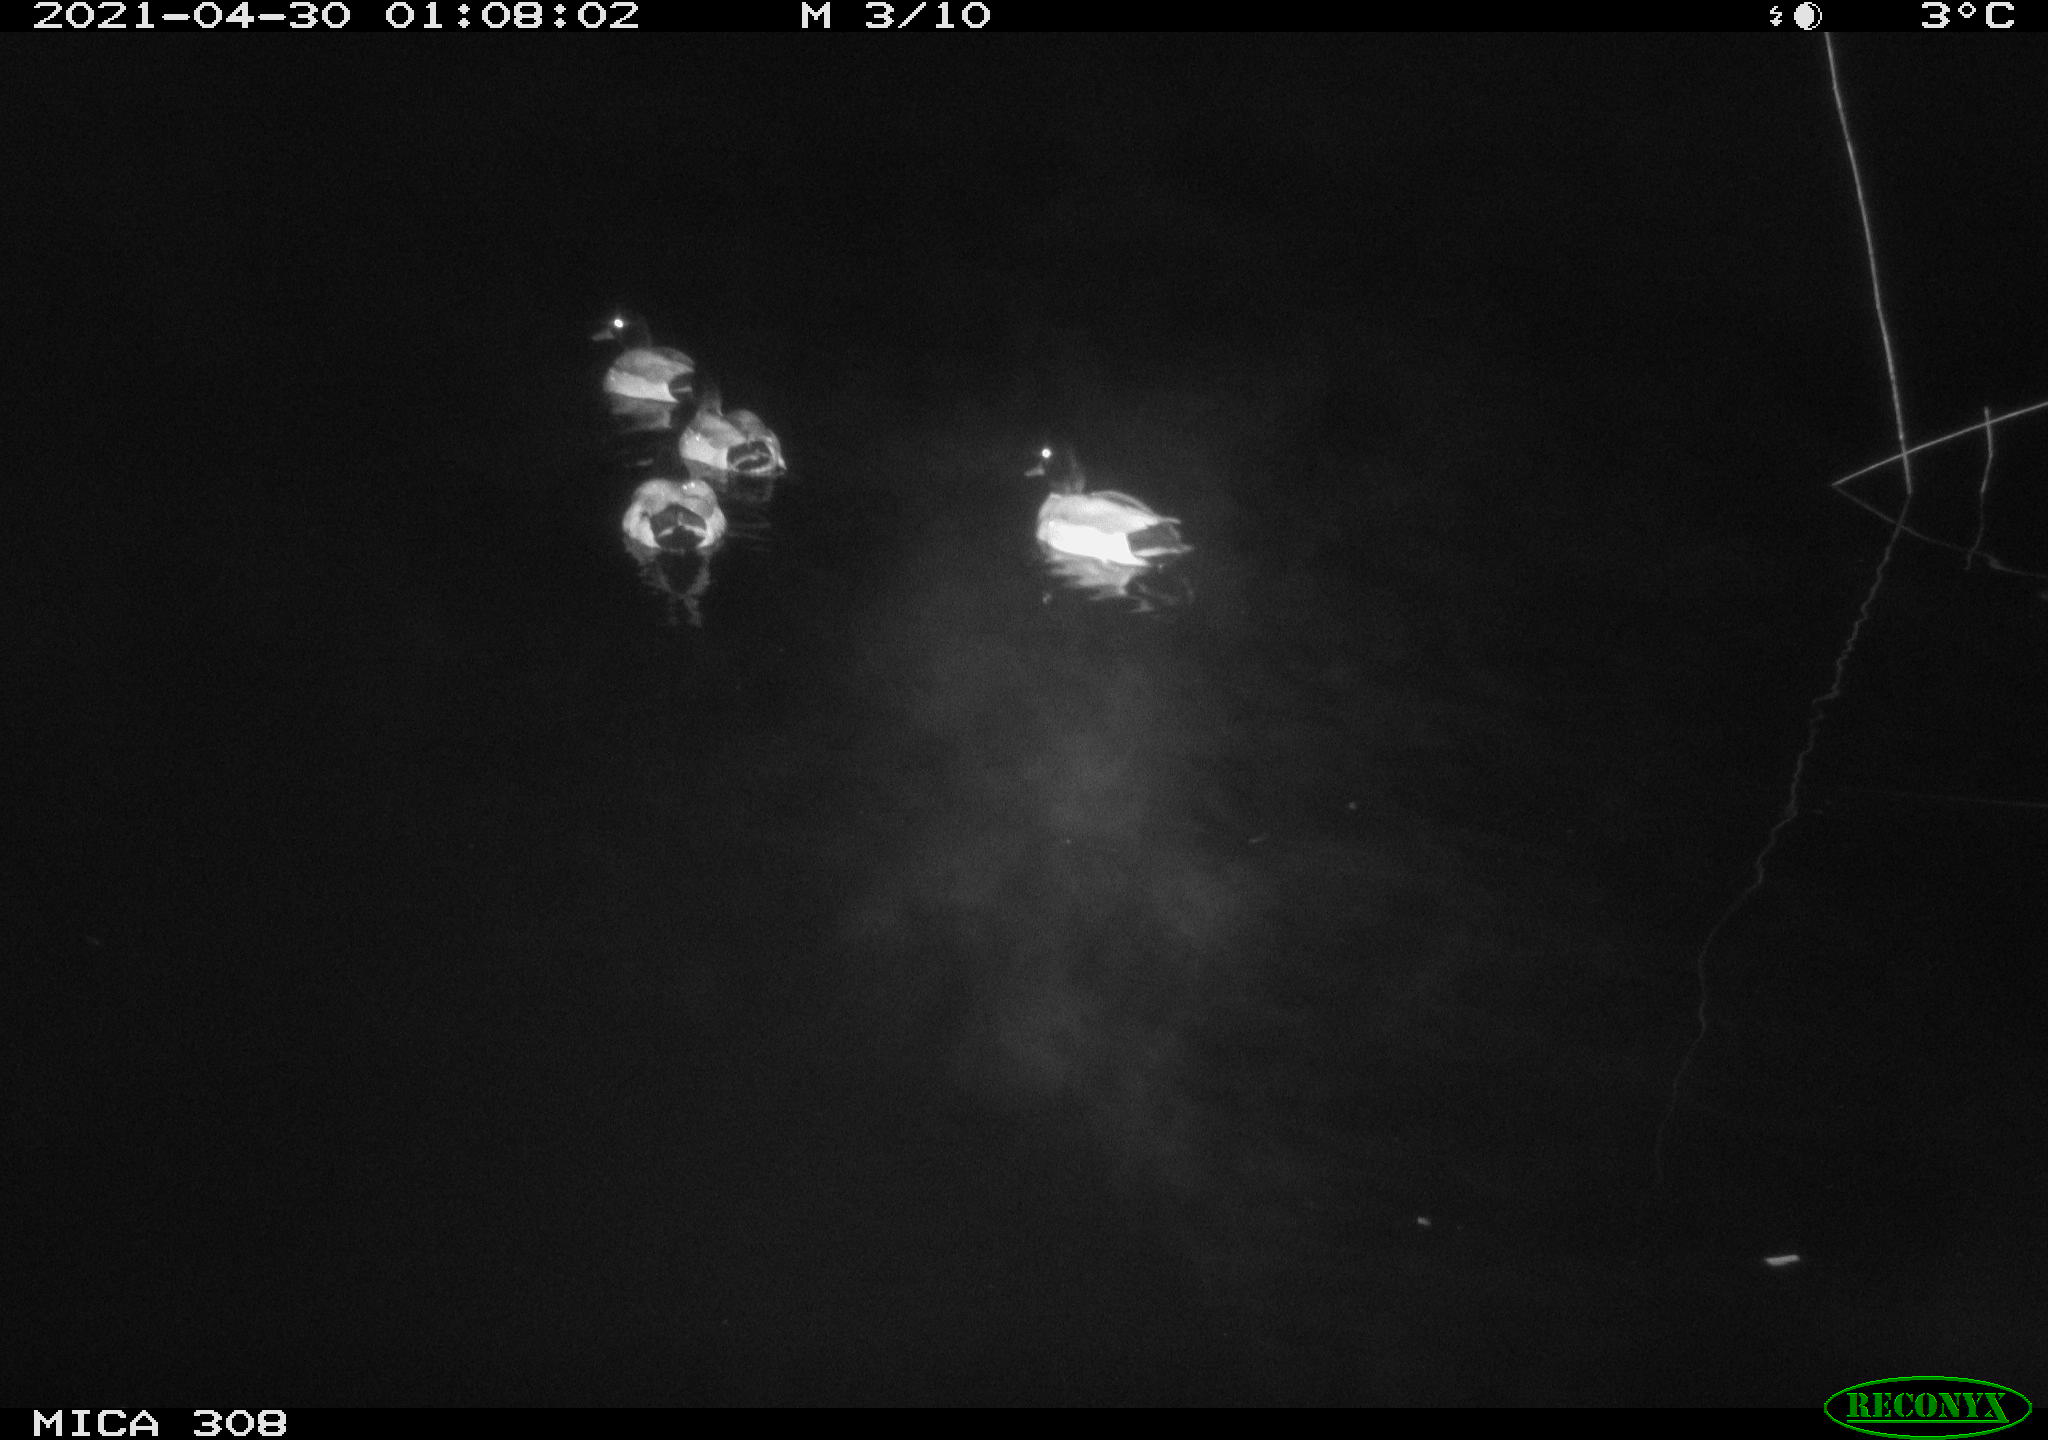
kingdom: Animalia
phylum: Chordata
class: Aves
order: Anseriformes
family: Anatidae
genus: Anas
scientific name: Anas platyrhynchos
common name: Mallard
